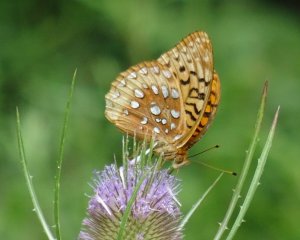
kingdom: Animalia
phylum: Arthropoda
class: Insecta
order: Lepidoptera
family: Nymphalidae
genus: Speyeria
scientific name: Speyeria cybele
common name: Great Spangled Fritillary
